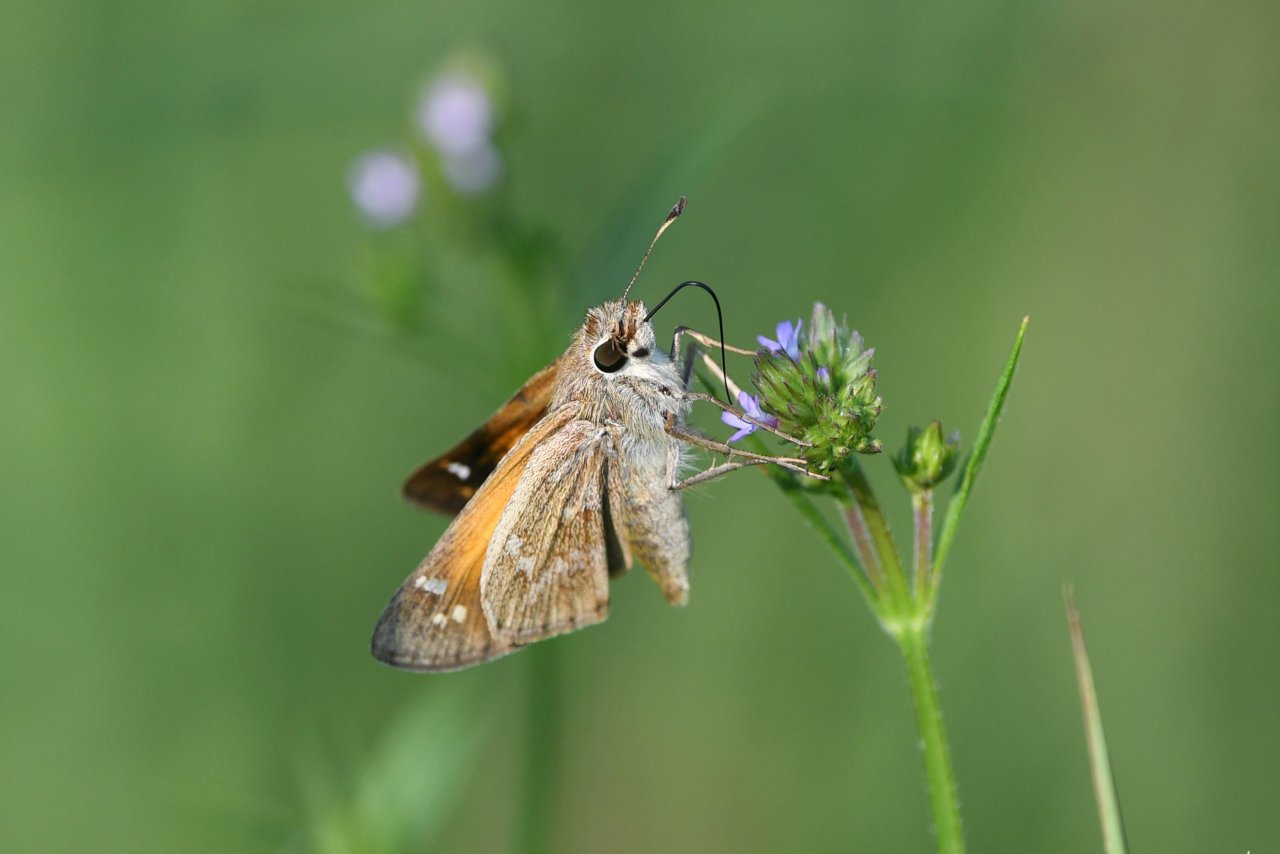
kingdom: Animalia
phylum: Arthropoda
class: Insecta
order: Lepidoptera
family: Hesperiidae
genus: Atalopedes
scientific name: Atalopedes campestris
